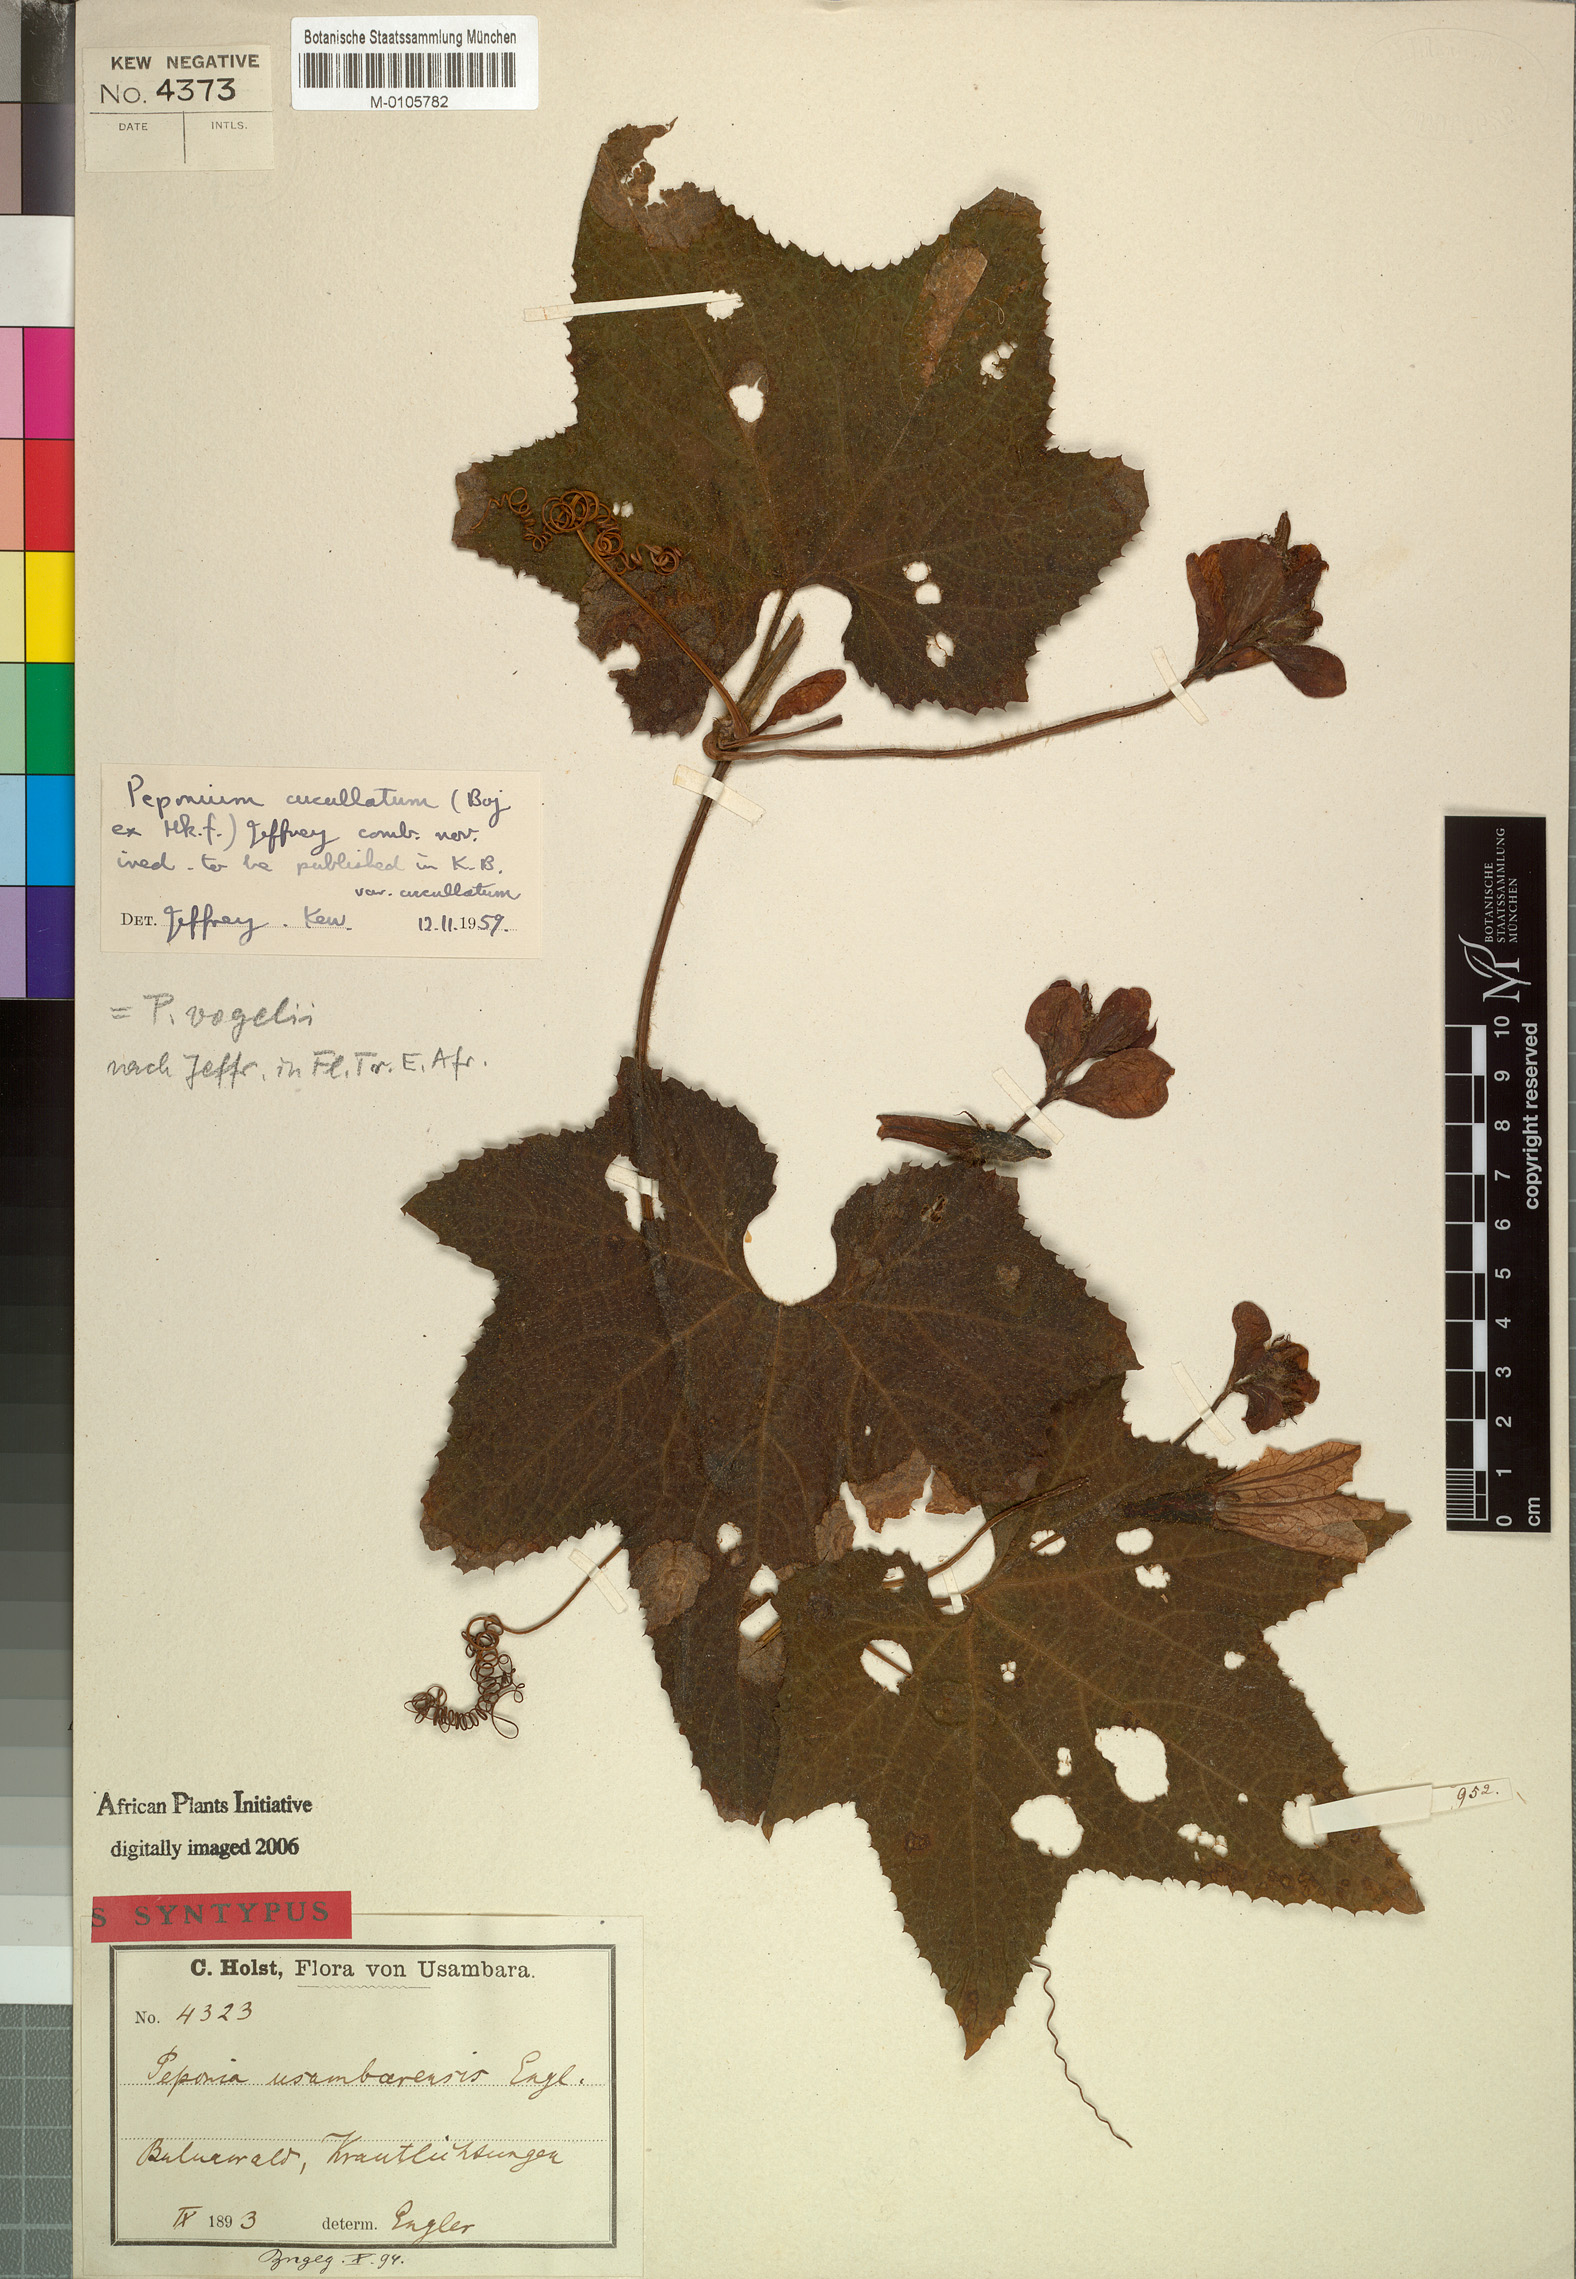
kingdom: Plantae
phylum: Tracheophyta
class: Magnoliopsida
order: Cucurbitales
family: Cucurbitaceae
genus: Peponium
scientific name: Peponium vogelii
